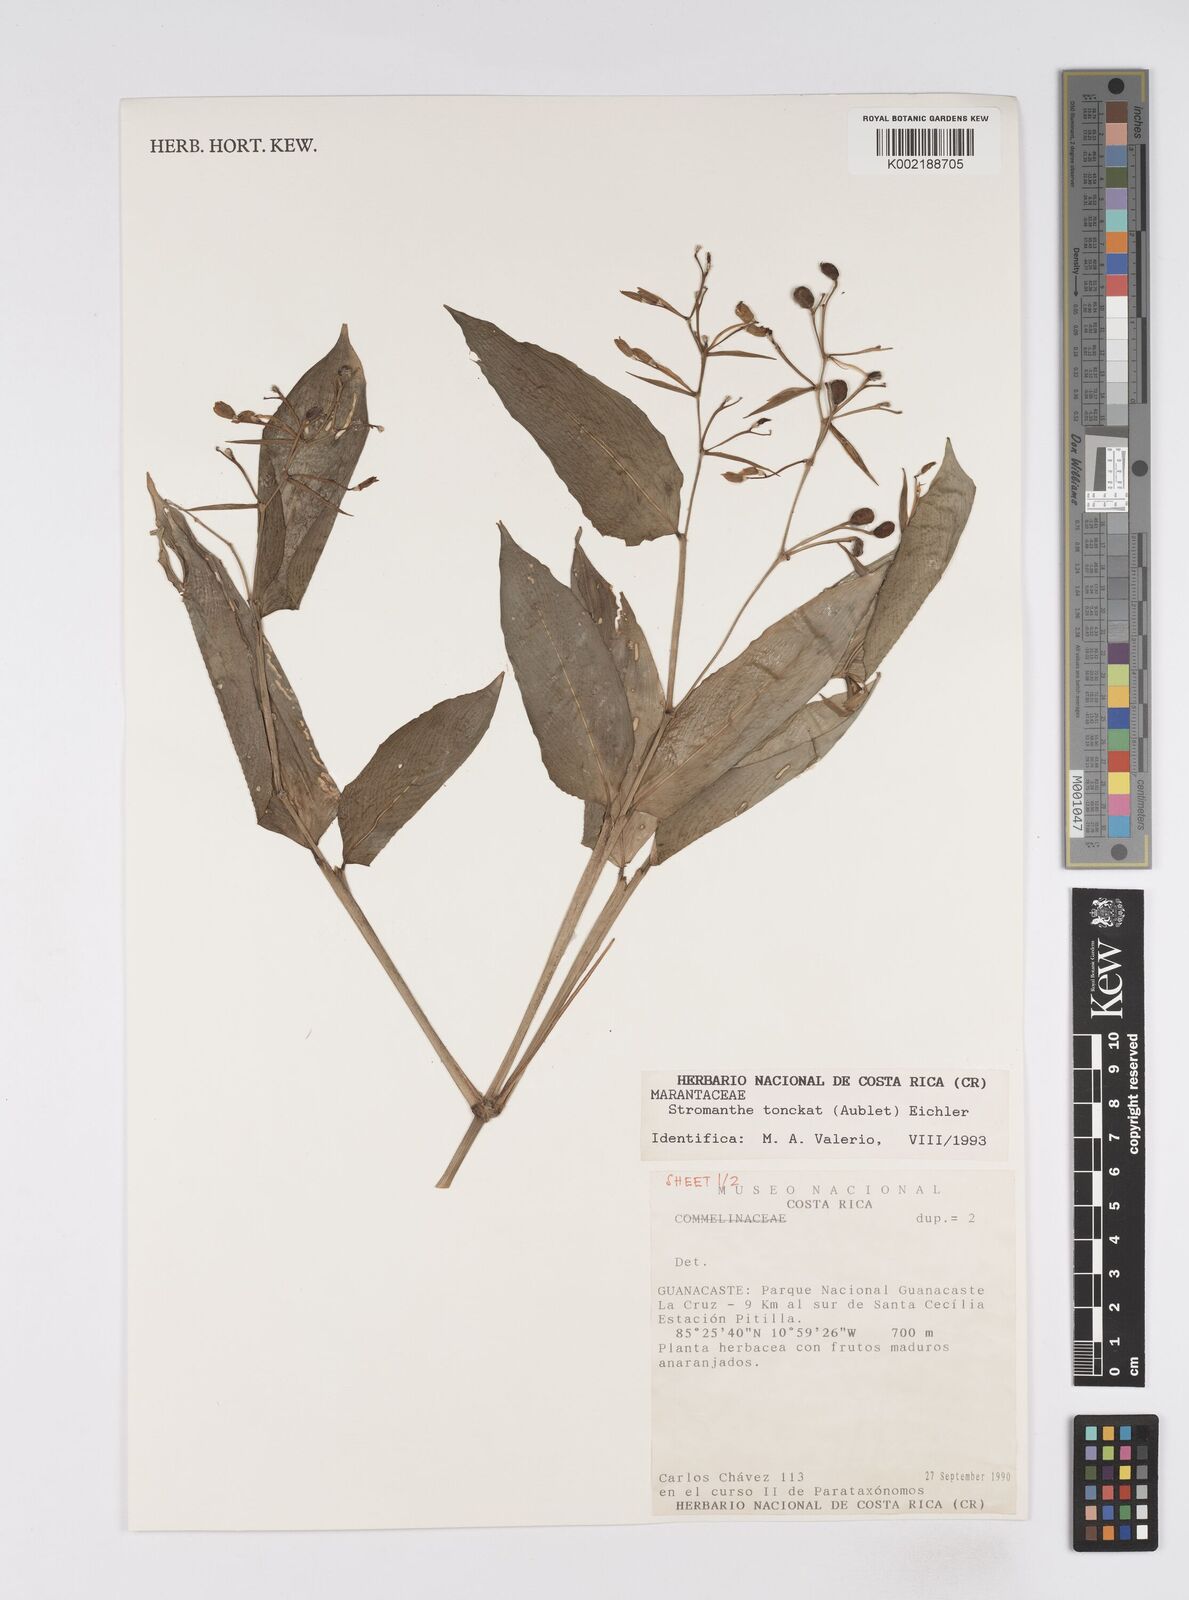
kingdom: Plantae
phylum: Tracheophyta
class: Liliopsida
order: Zingiberales
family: Marantaceae
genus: Stromanthe
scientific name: Stromanthe tonckat
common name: Stromanthe
